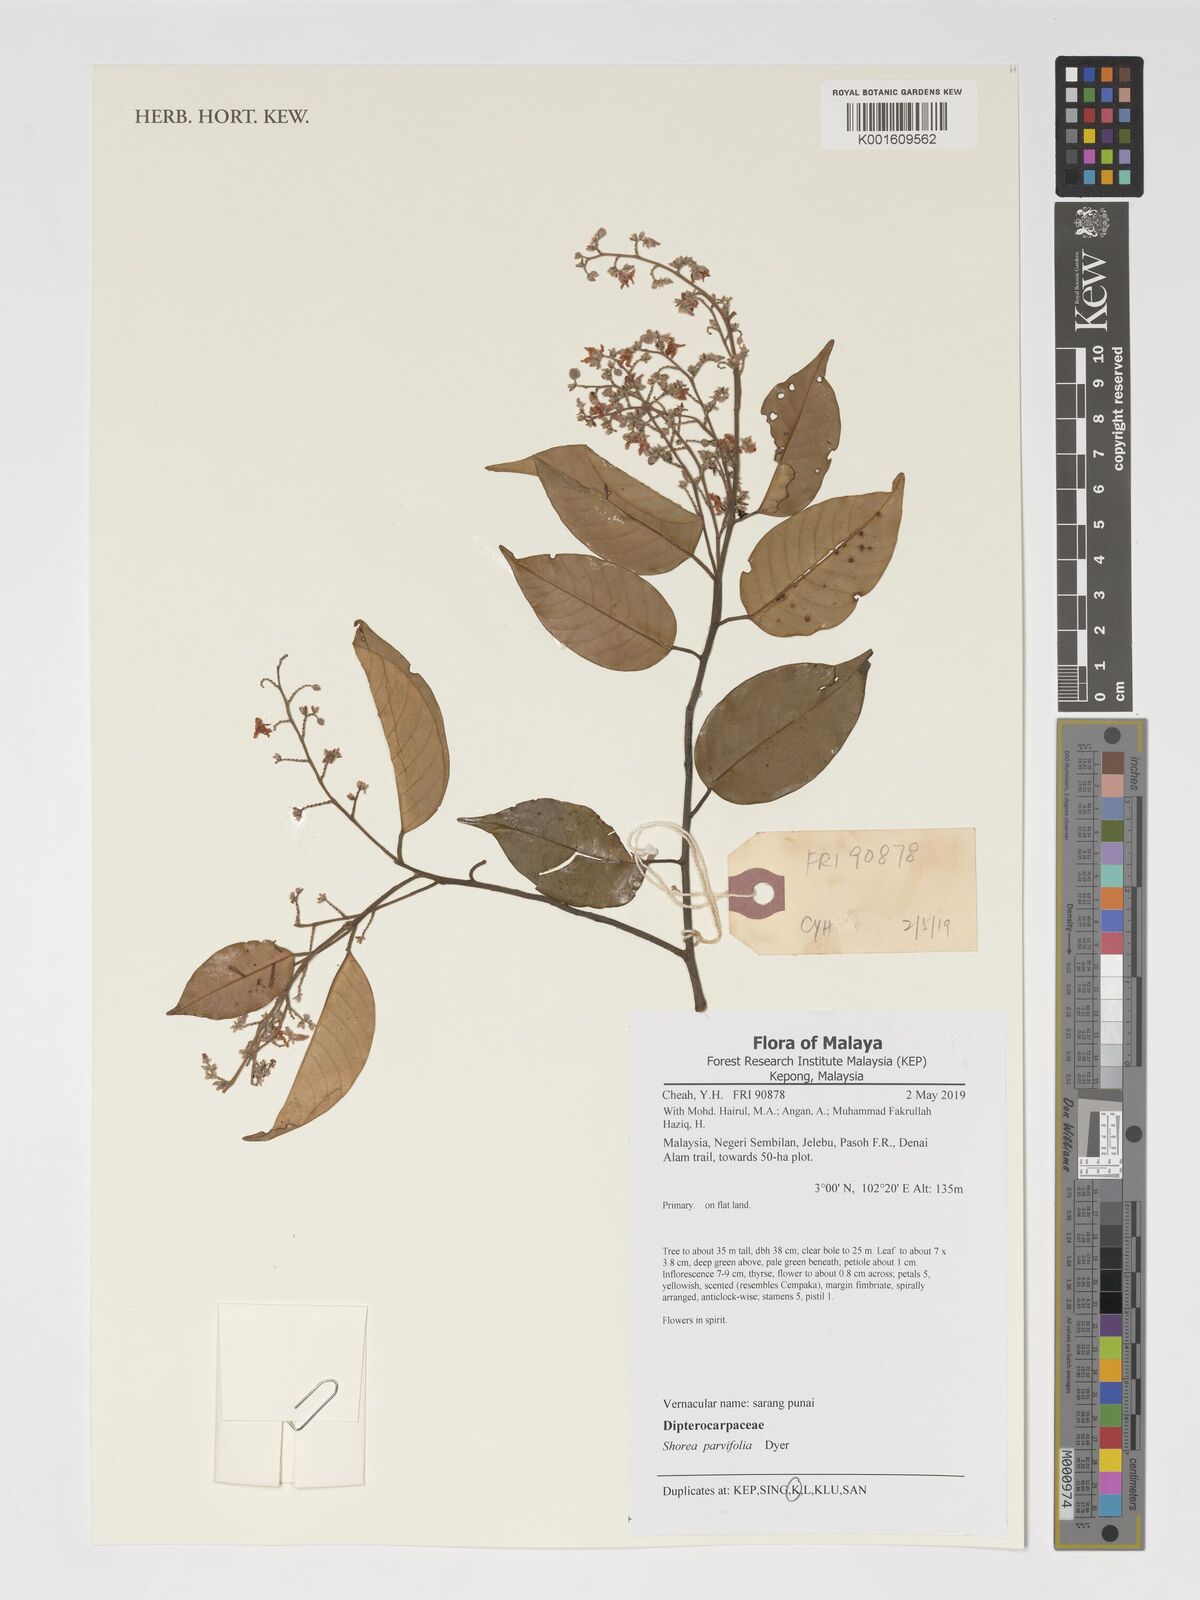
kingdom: Plantae
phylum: Tracheophyta
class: Magnoliopsida
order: Malvales
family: Dipterocarpaceae
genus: Shorea
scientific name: Shorea parvifolia
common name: Light red meranti
